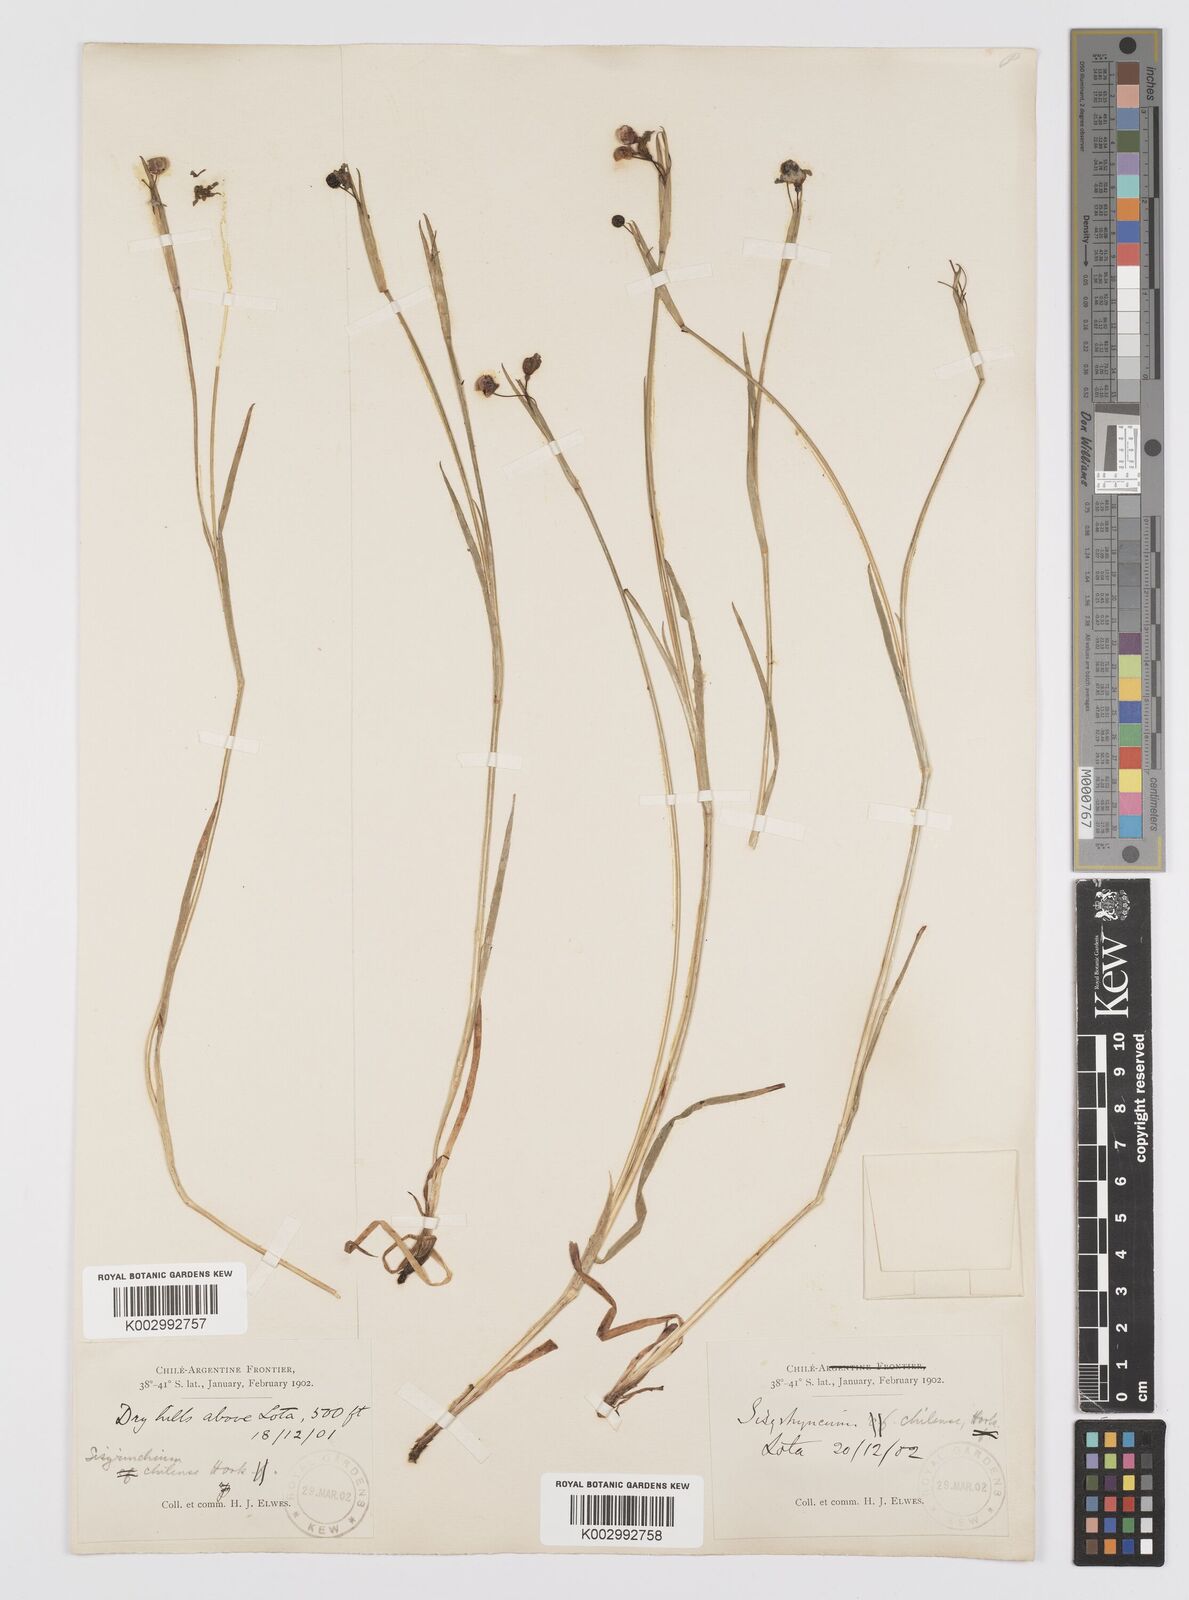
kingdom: Plantae
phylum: Tracheophyta
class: Liliopsida
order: Asparagales
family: Iridaceae
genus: Sisyrinchium
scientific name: Sisyrinchium chilense
